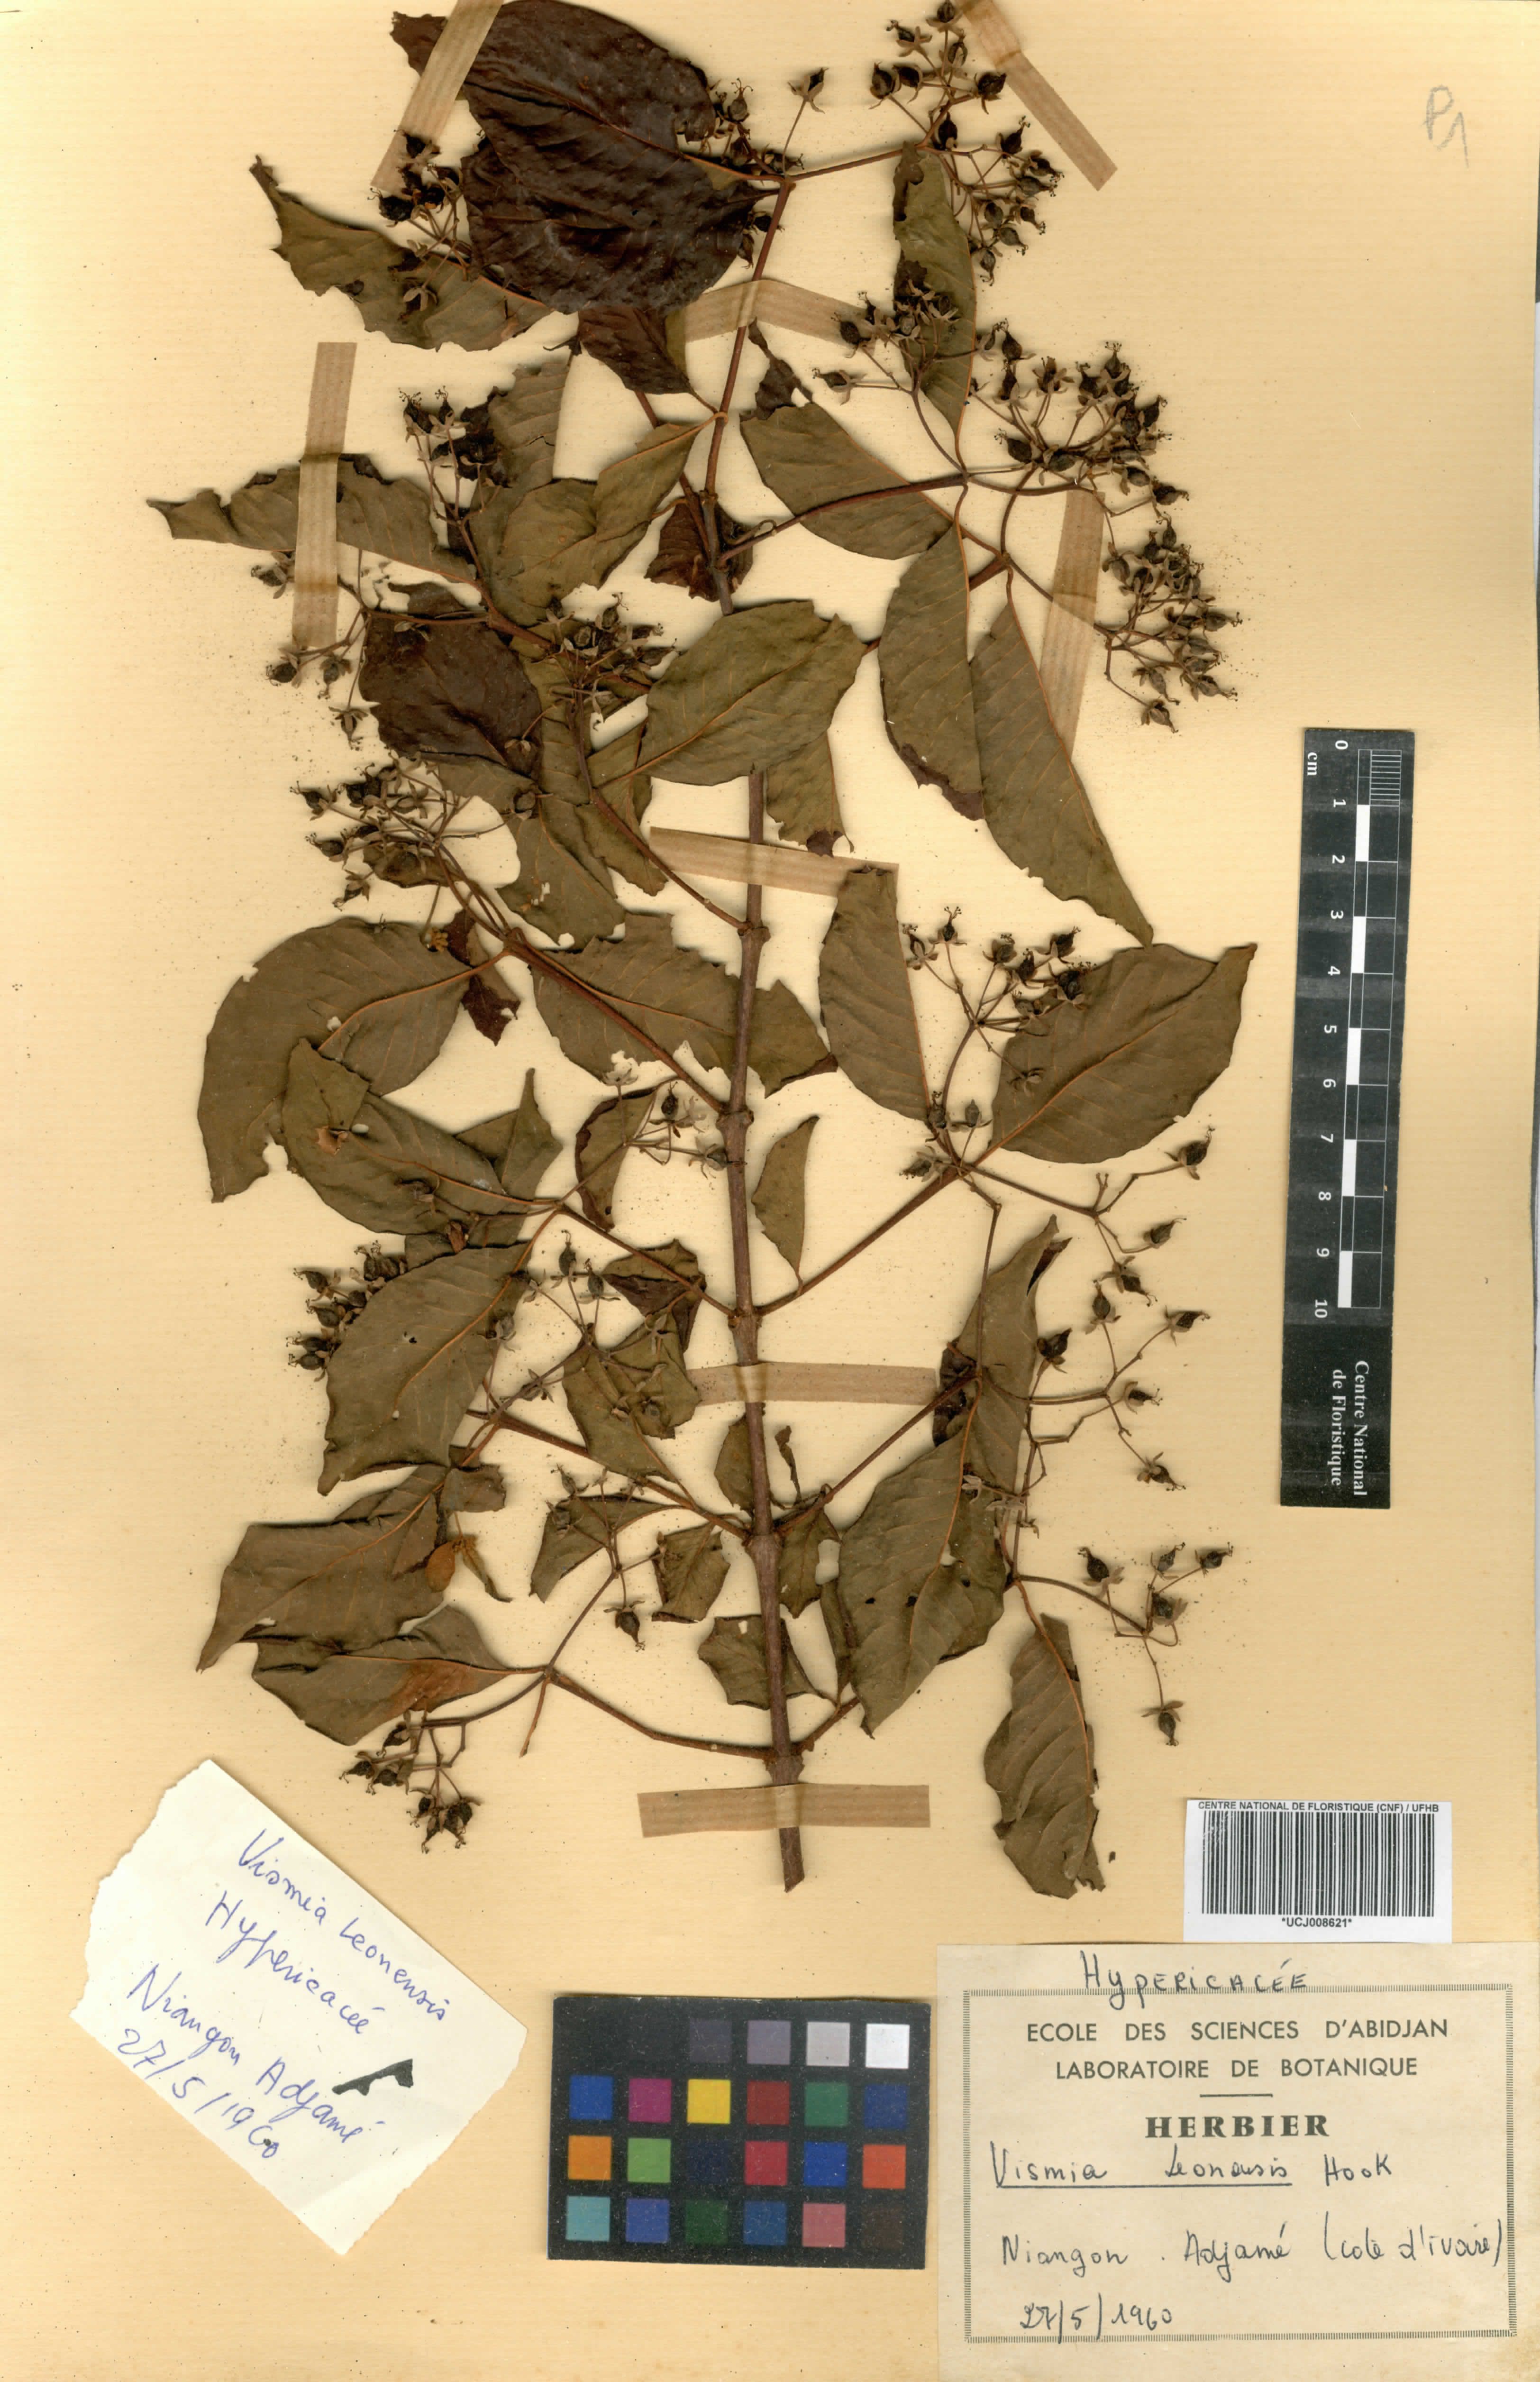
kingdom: Plantae
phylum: Tracheophyta
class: Magnoliopsida
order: Malpighiales
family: Hypericaceae
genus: Psorospermum
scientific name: Psorospermum guineense
